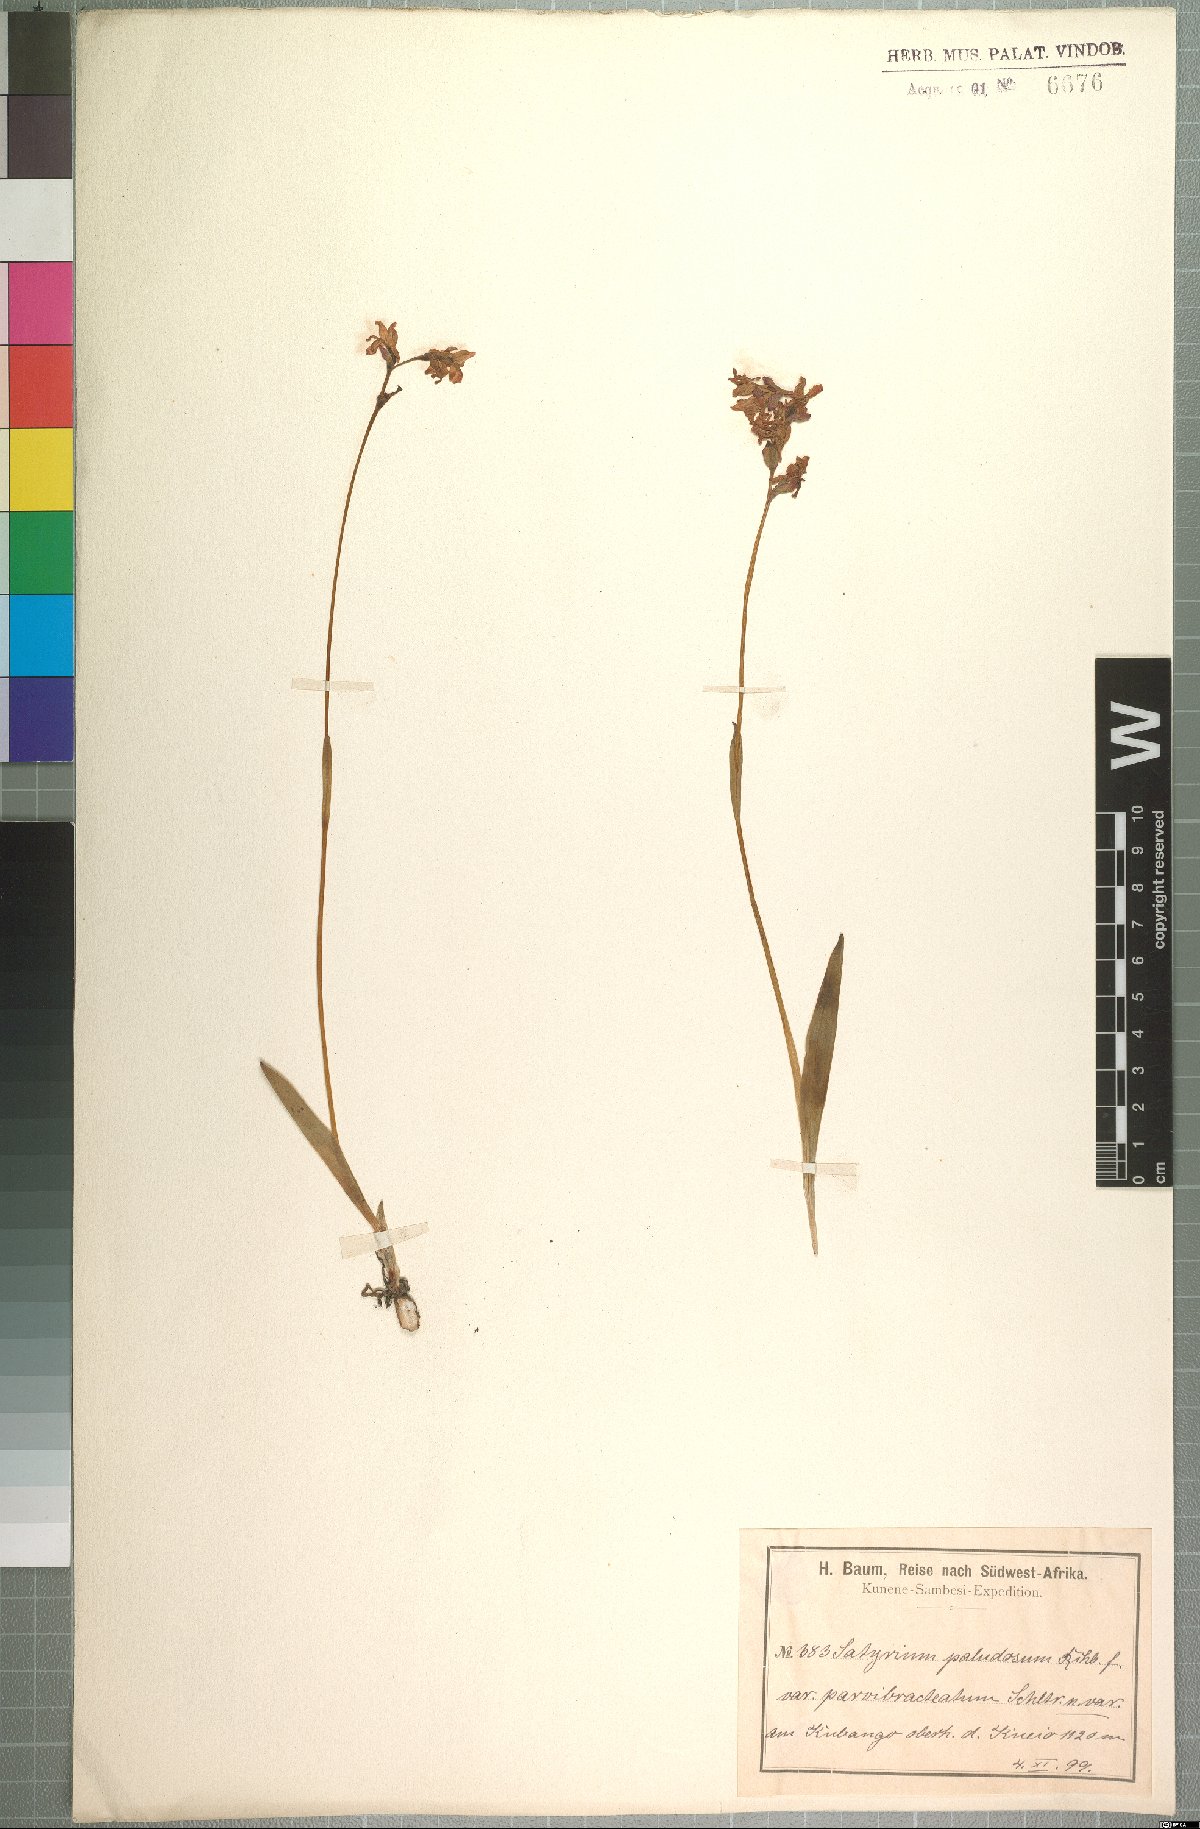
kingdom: Plantae
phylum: Tracheophyta
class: Liliopsida
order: Asparagales
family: Orchidaceae
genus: Satyrium
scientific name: Satyrium oliganthum
